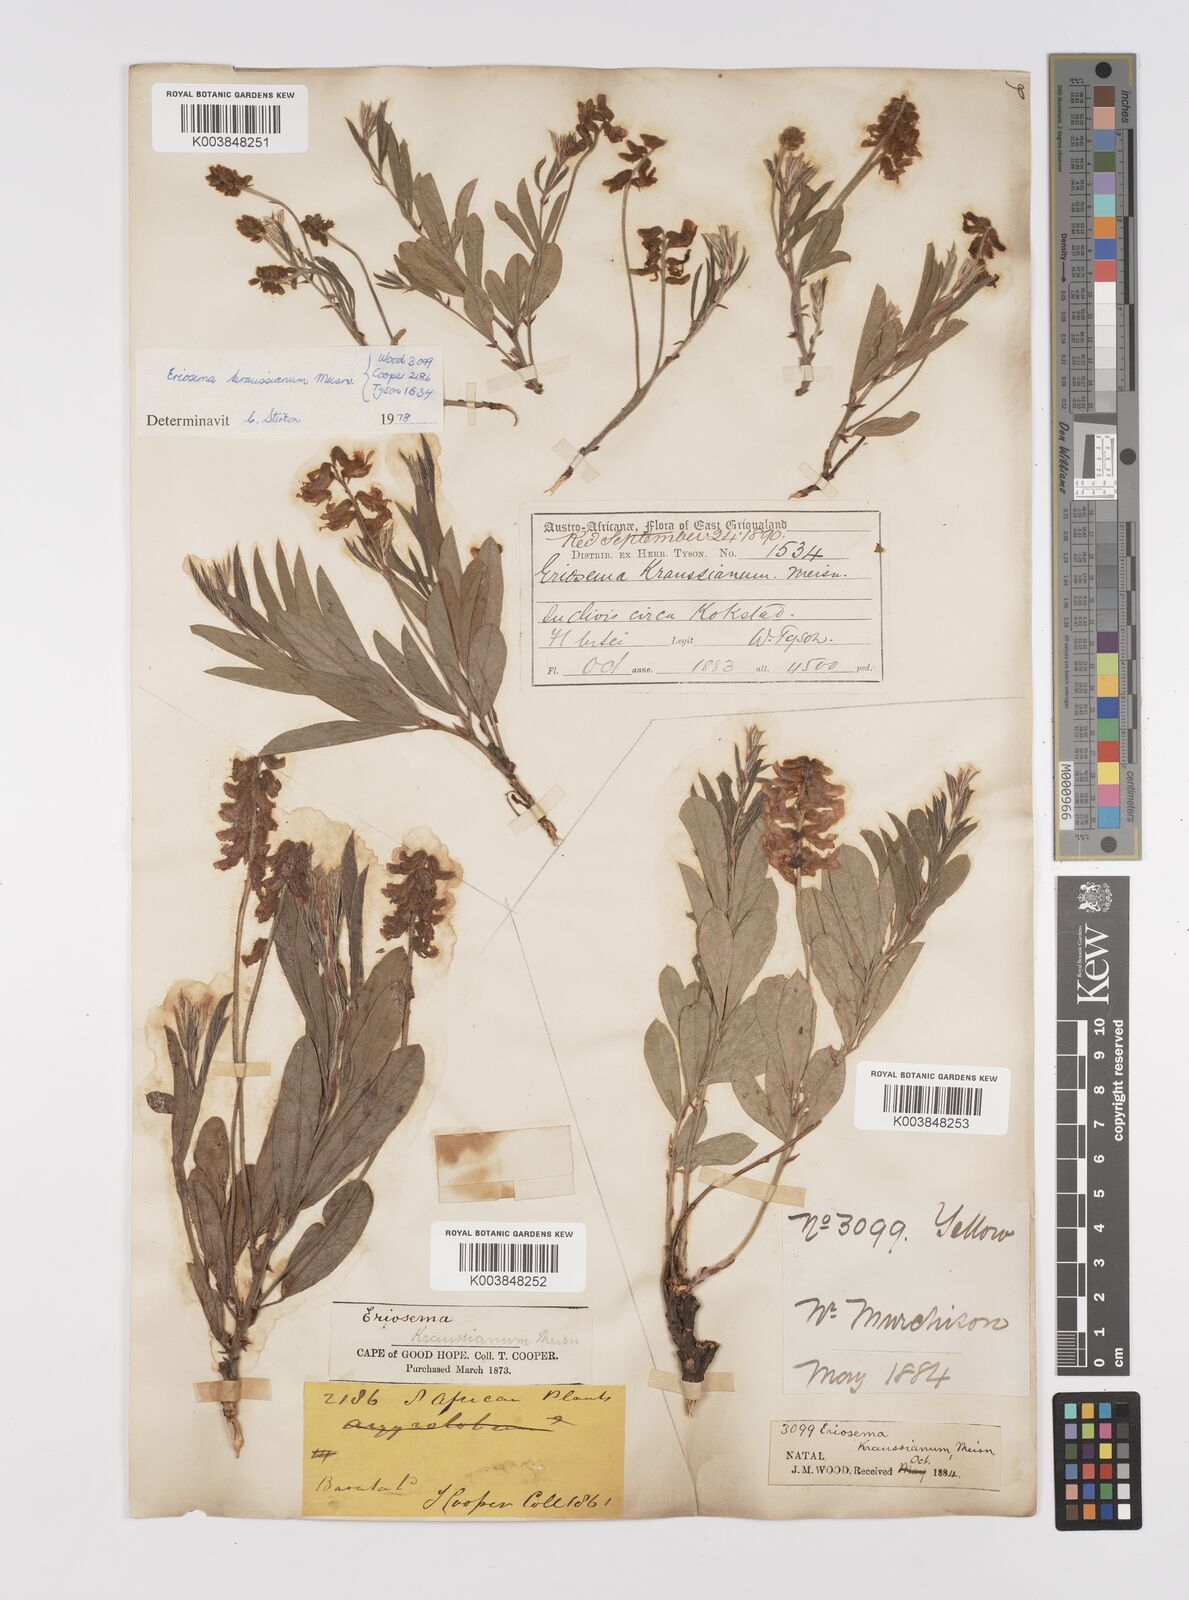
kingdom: Plantae
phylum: Tracheophyta
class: Magnoliopsida
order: Fabales
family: Fabaceae
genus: Eriosema
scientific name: Eriosema kraussianum
